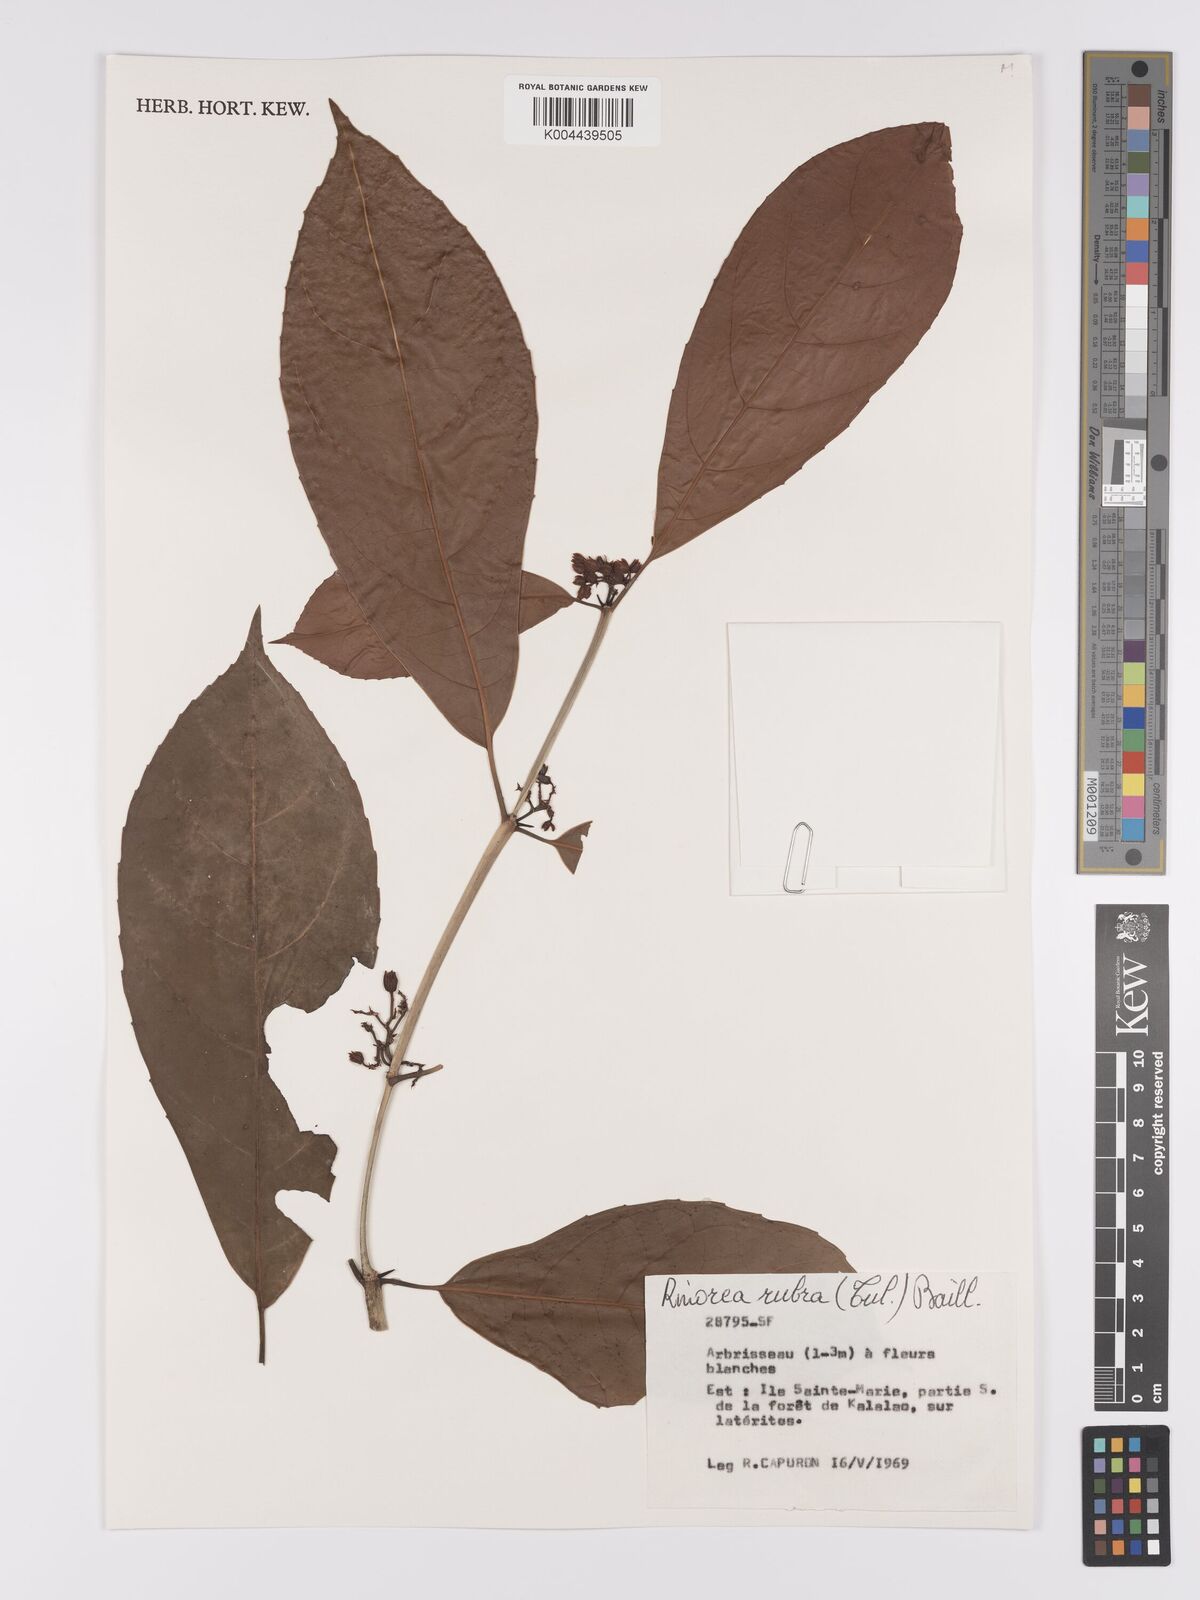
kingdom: Plantae
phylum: Tracheophyta
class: Magnoliopsida
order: Malpighiales
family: Violaceae
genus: Rinorea
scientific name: Rinorea rubra
